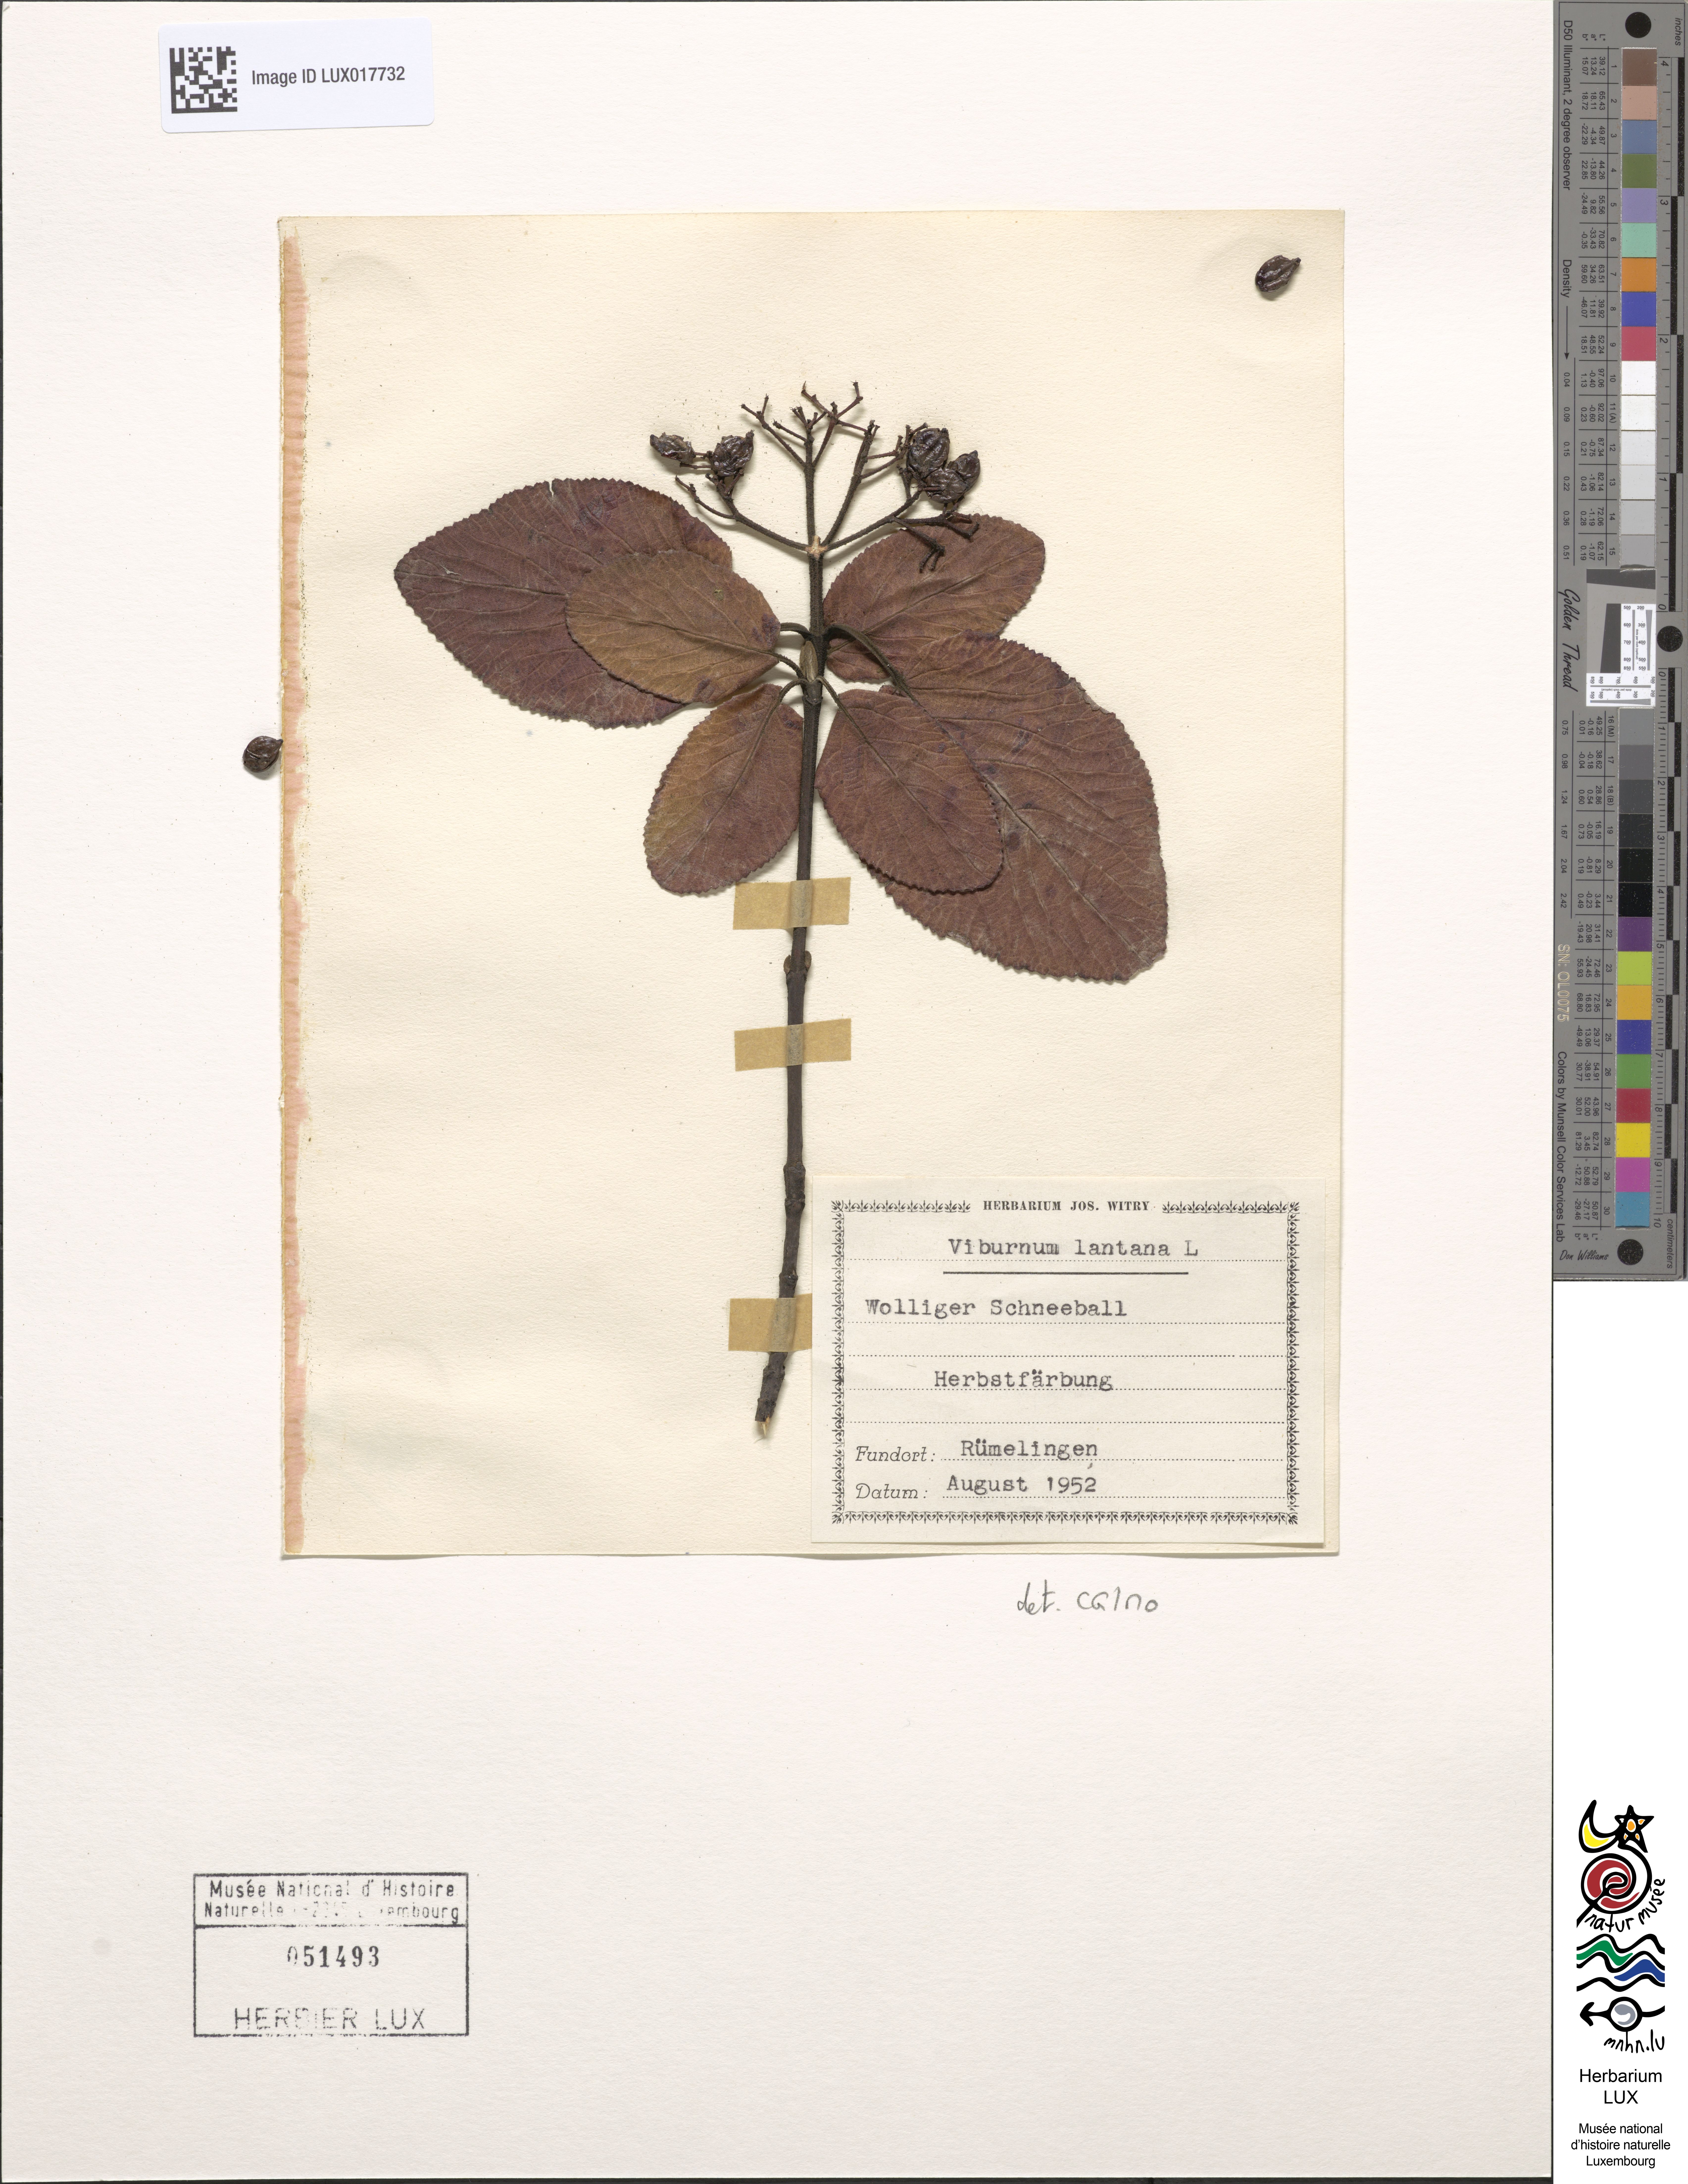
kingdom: Plantae
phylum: Tracheophyta
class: Magnoliopsida
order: Dipsacales
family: Viburnaceae
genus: Viburnum
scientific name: Viburnum lantana
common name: Wayfaring tree
